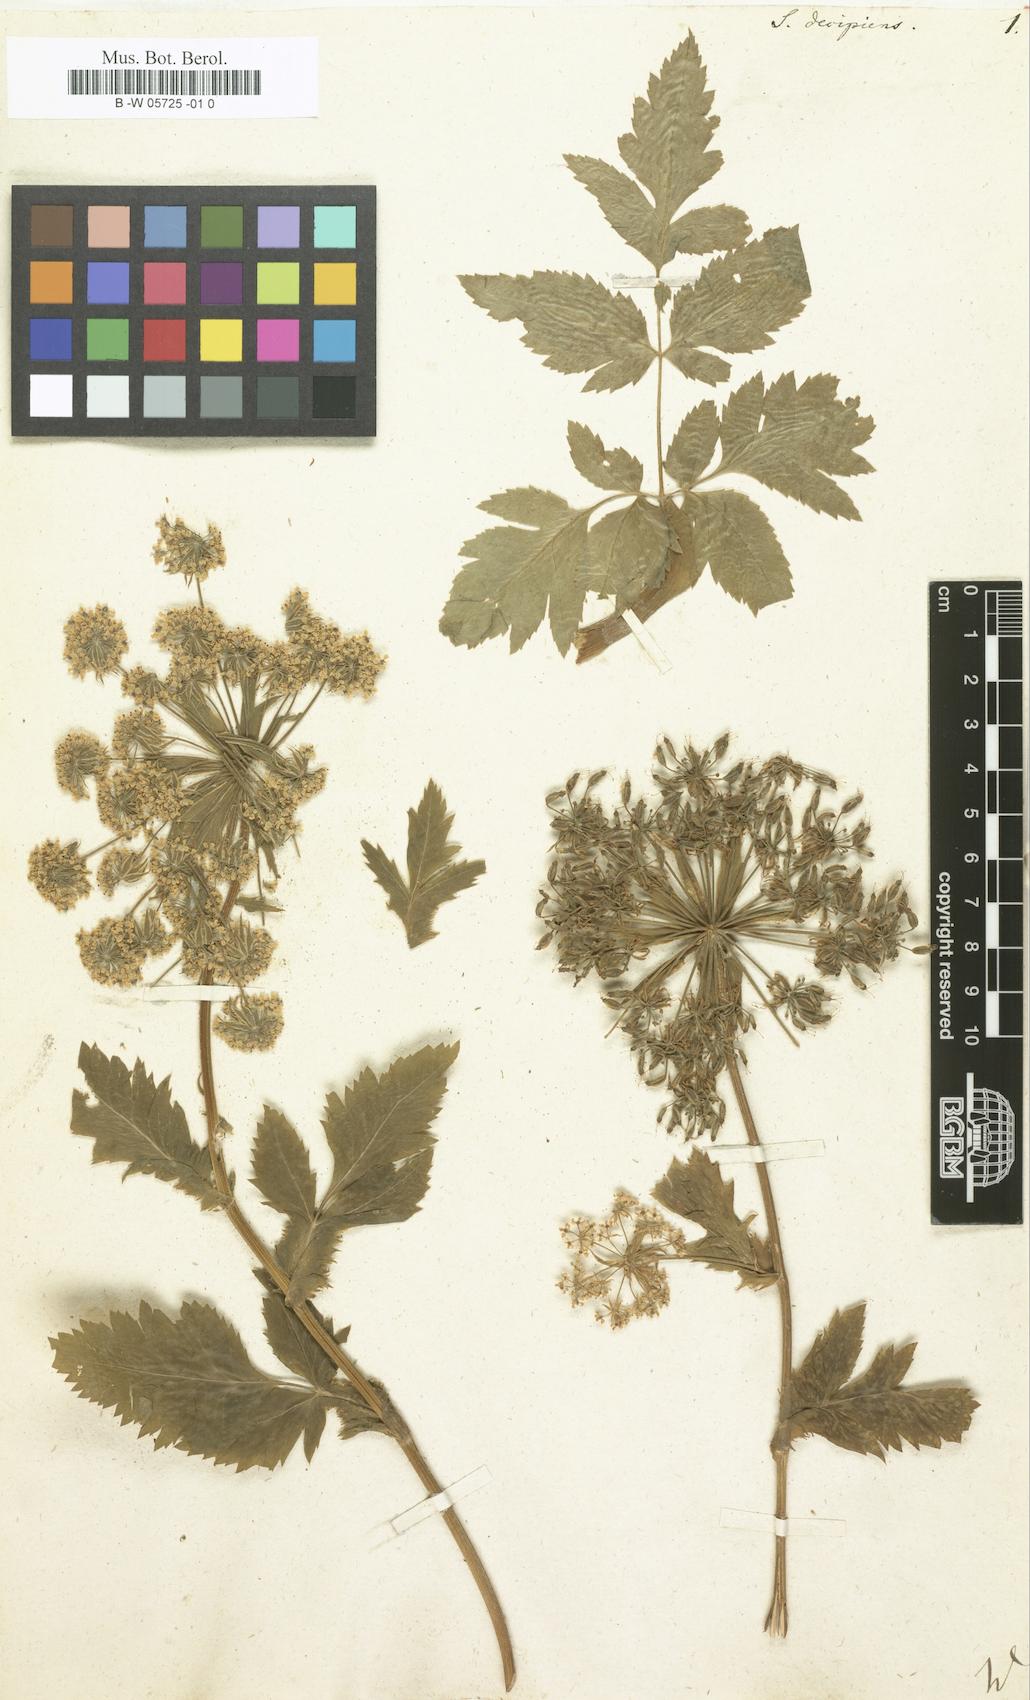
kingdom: Plantae
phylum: Tracheophyta
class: Magnoliopsida
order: Apiales
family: Apiaceae
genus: Daucus
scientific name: Daucus decipiens
